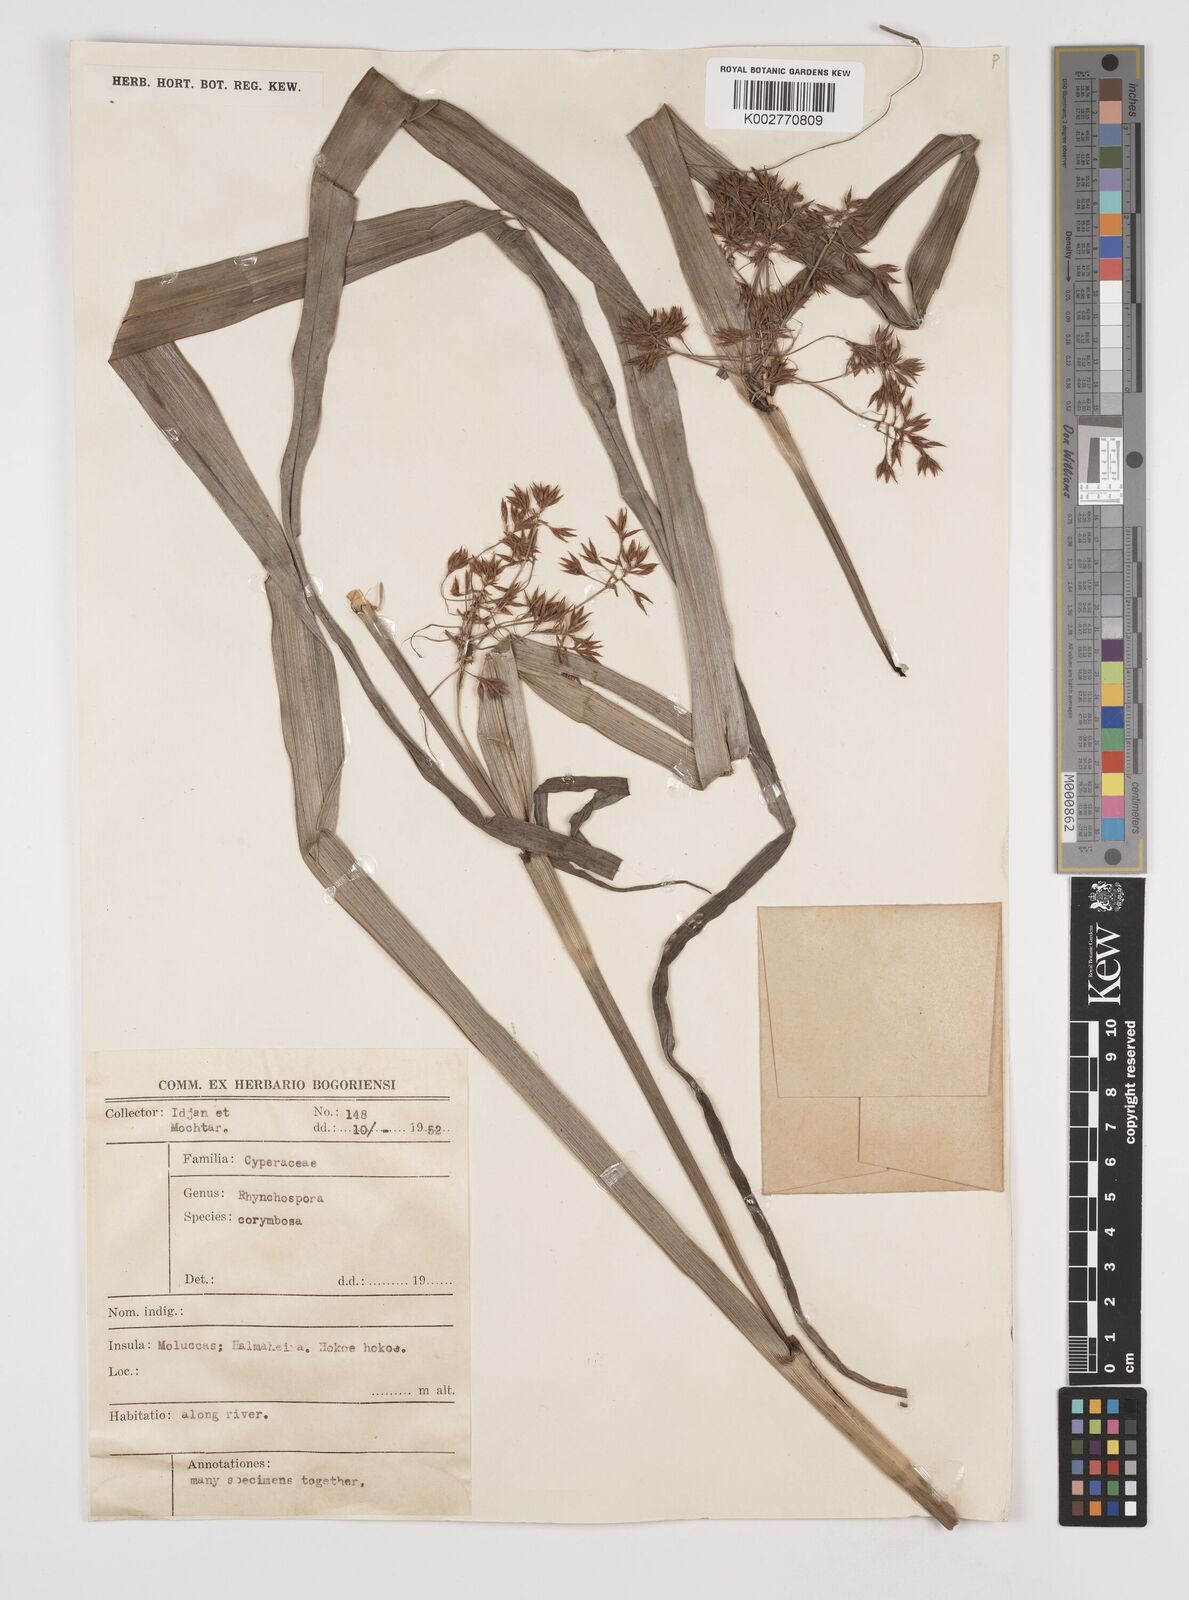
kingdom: Plantae
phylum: Tracheophyta
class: Liliopsida
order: Poales
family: Cyperaceae
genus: Rhynchospora
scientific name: Rhynchospora corymbosa
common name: Golden beak sedge
